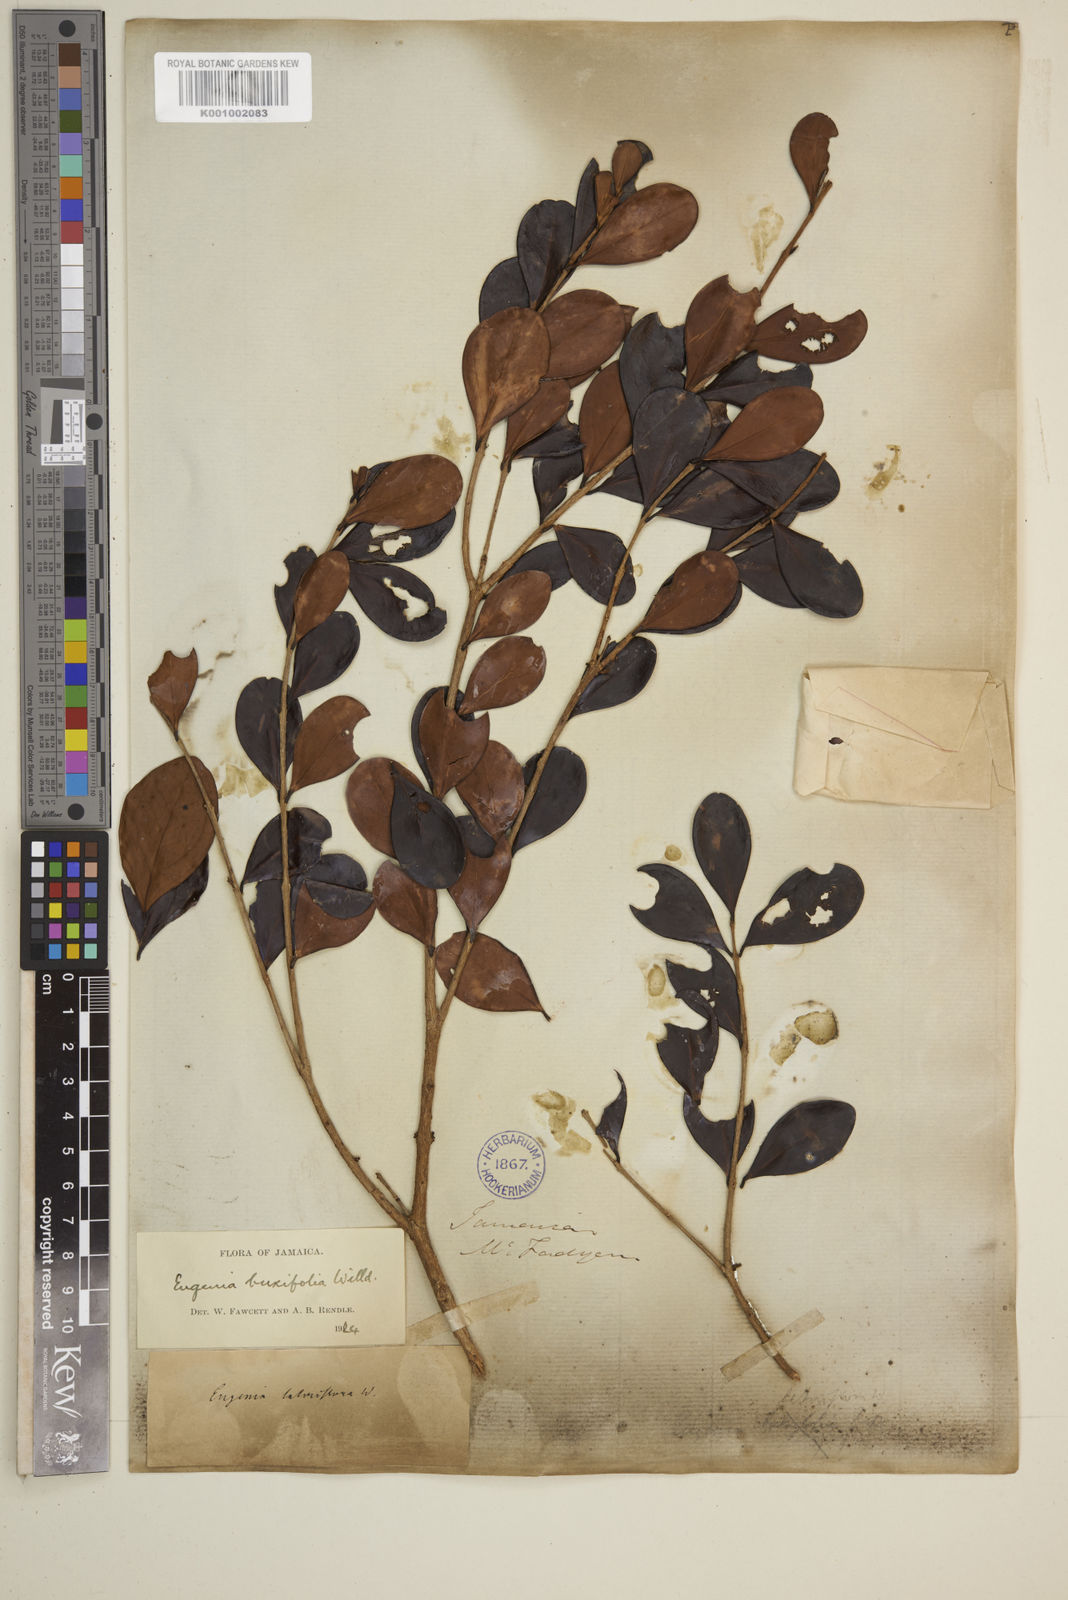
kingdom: Plantae
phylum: Tracheophyta
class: Magnoliopsida
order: Myrtales
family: Myrtaceae
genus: Eugenia
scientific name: Eugenia buxifolia
